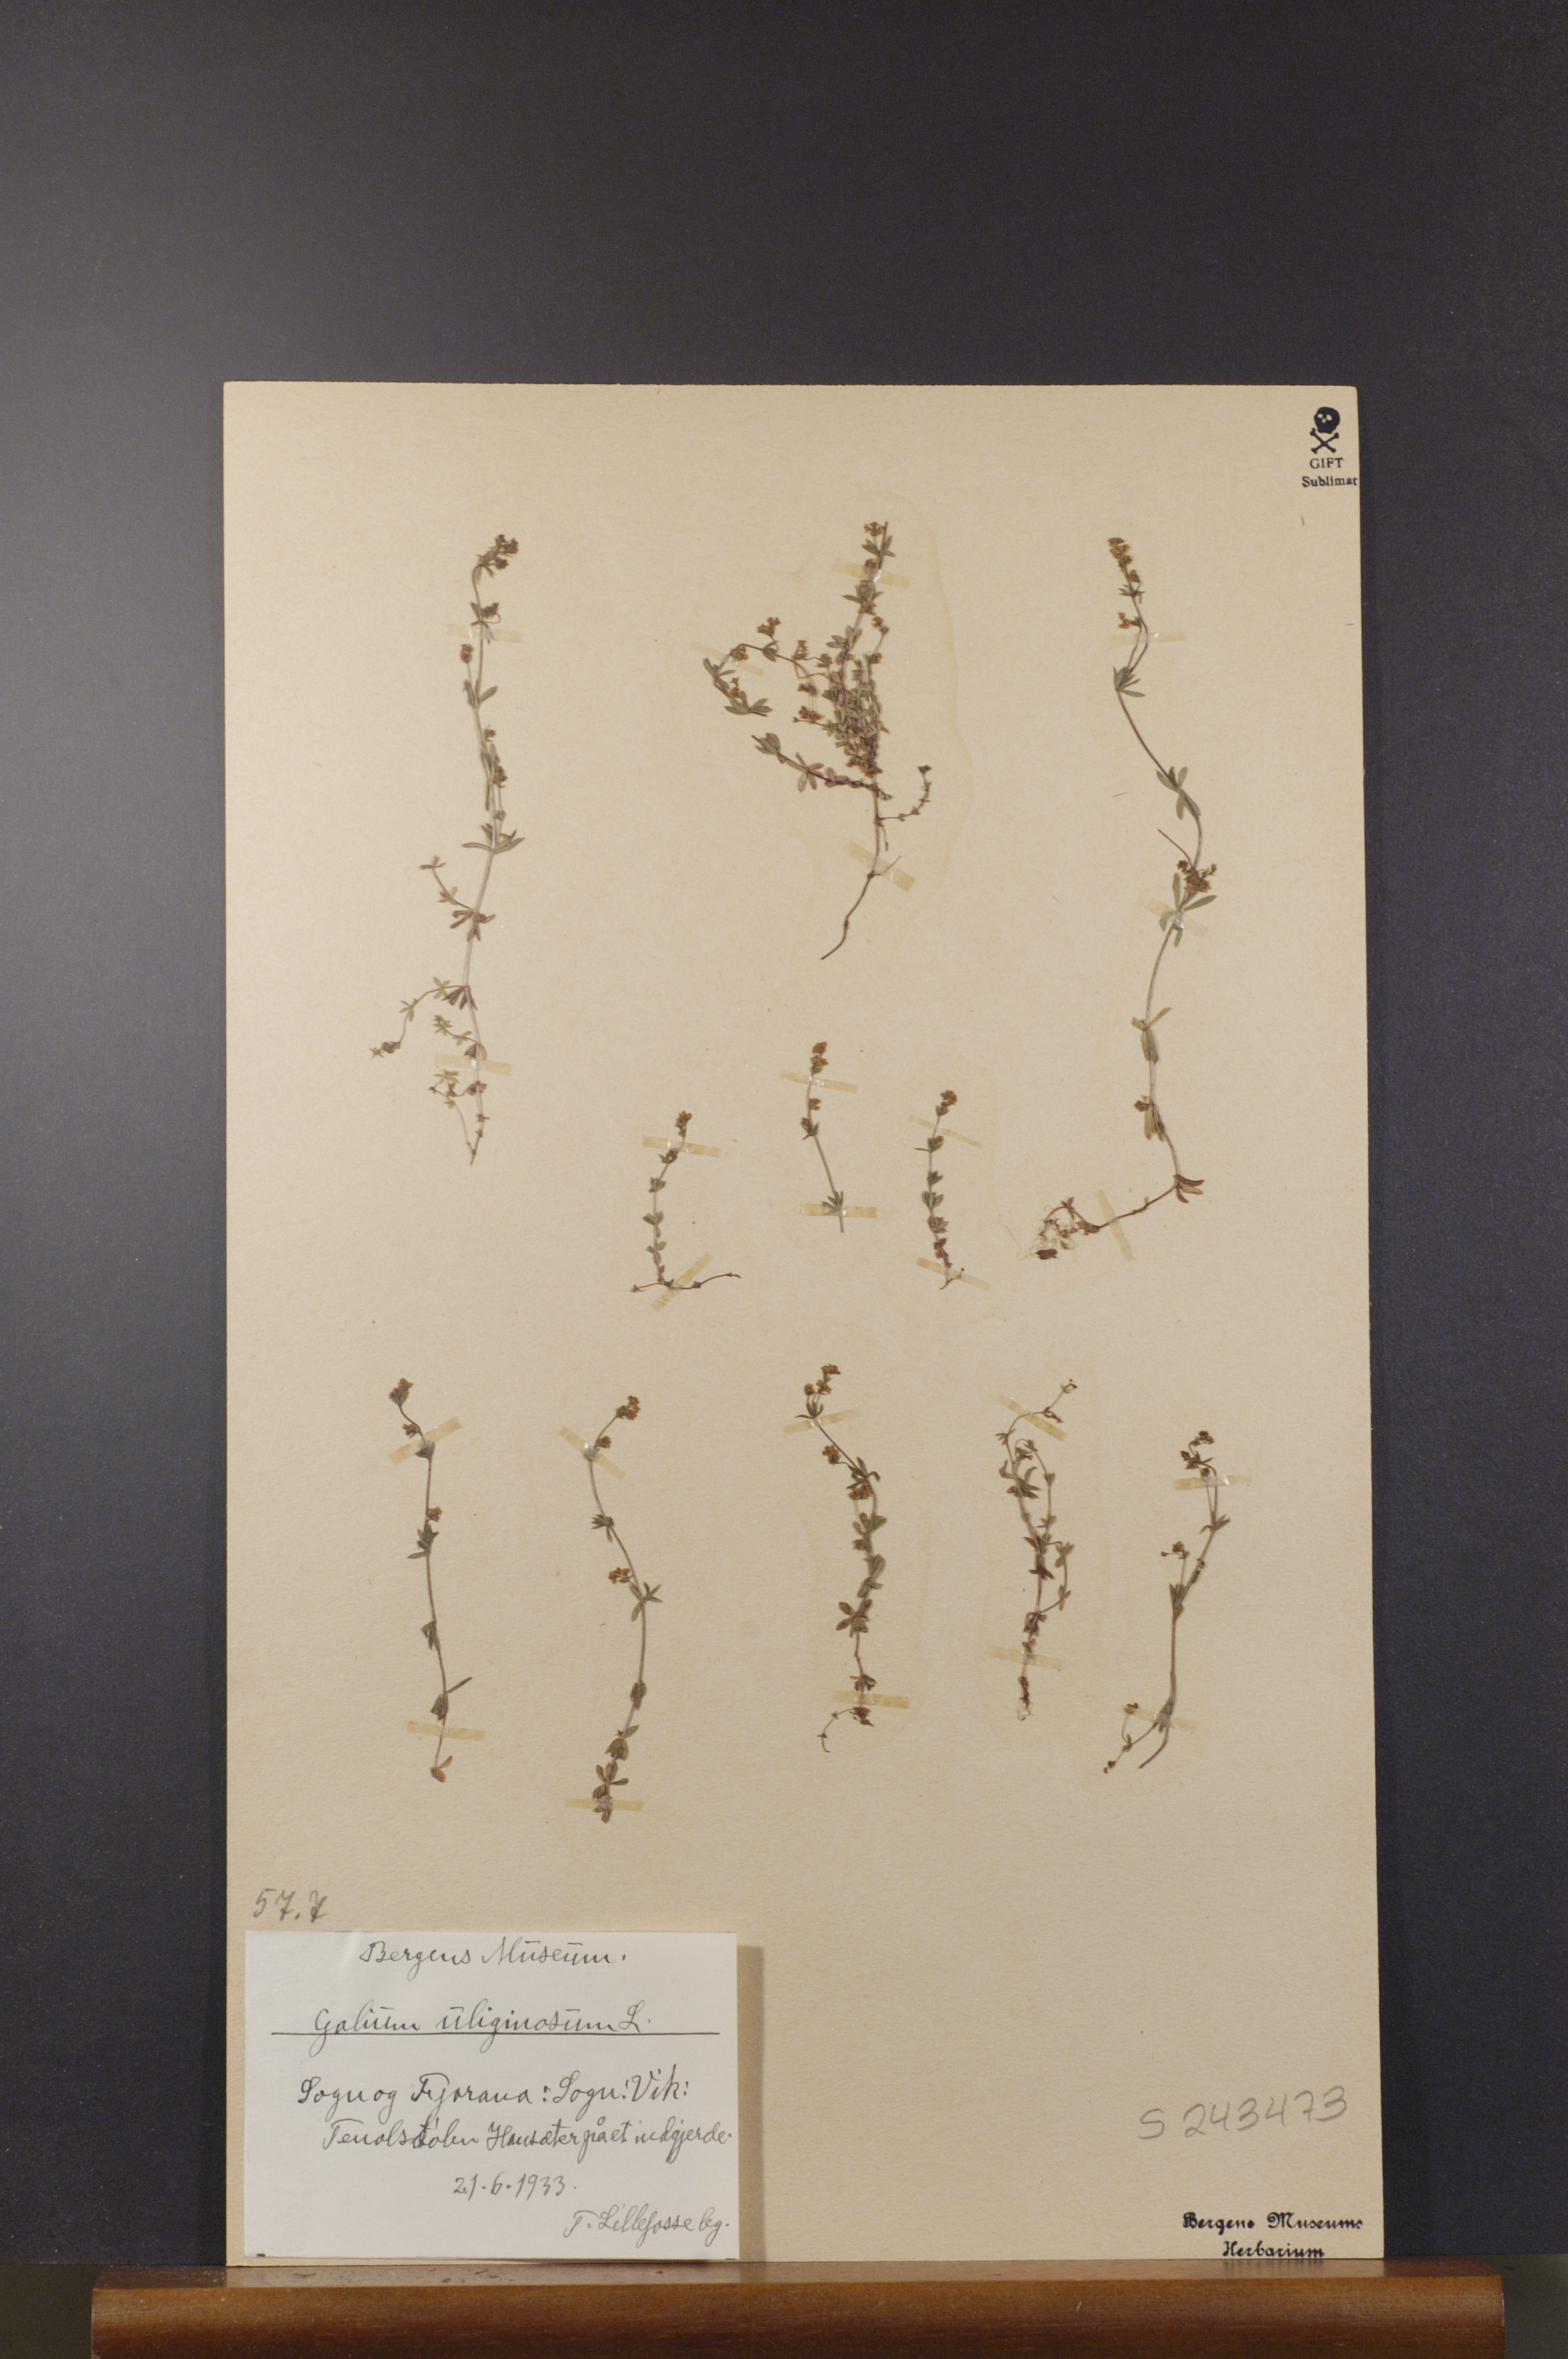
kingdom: Plantae
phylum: Tracheophyta
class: Magnoliopsida
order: Gentianales
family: Rubiaceae
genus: Galium
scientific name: Galium uliginosum
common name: Fen bedstraw
